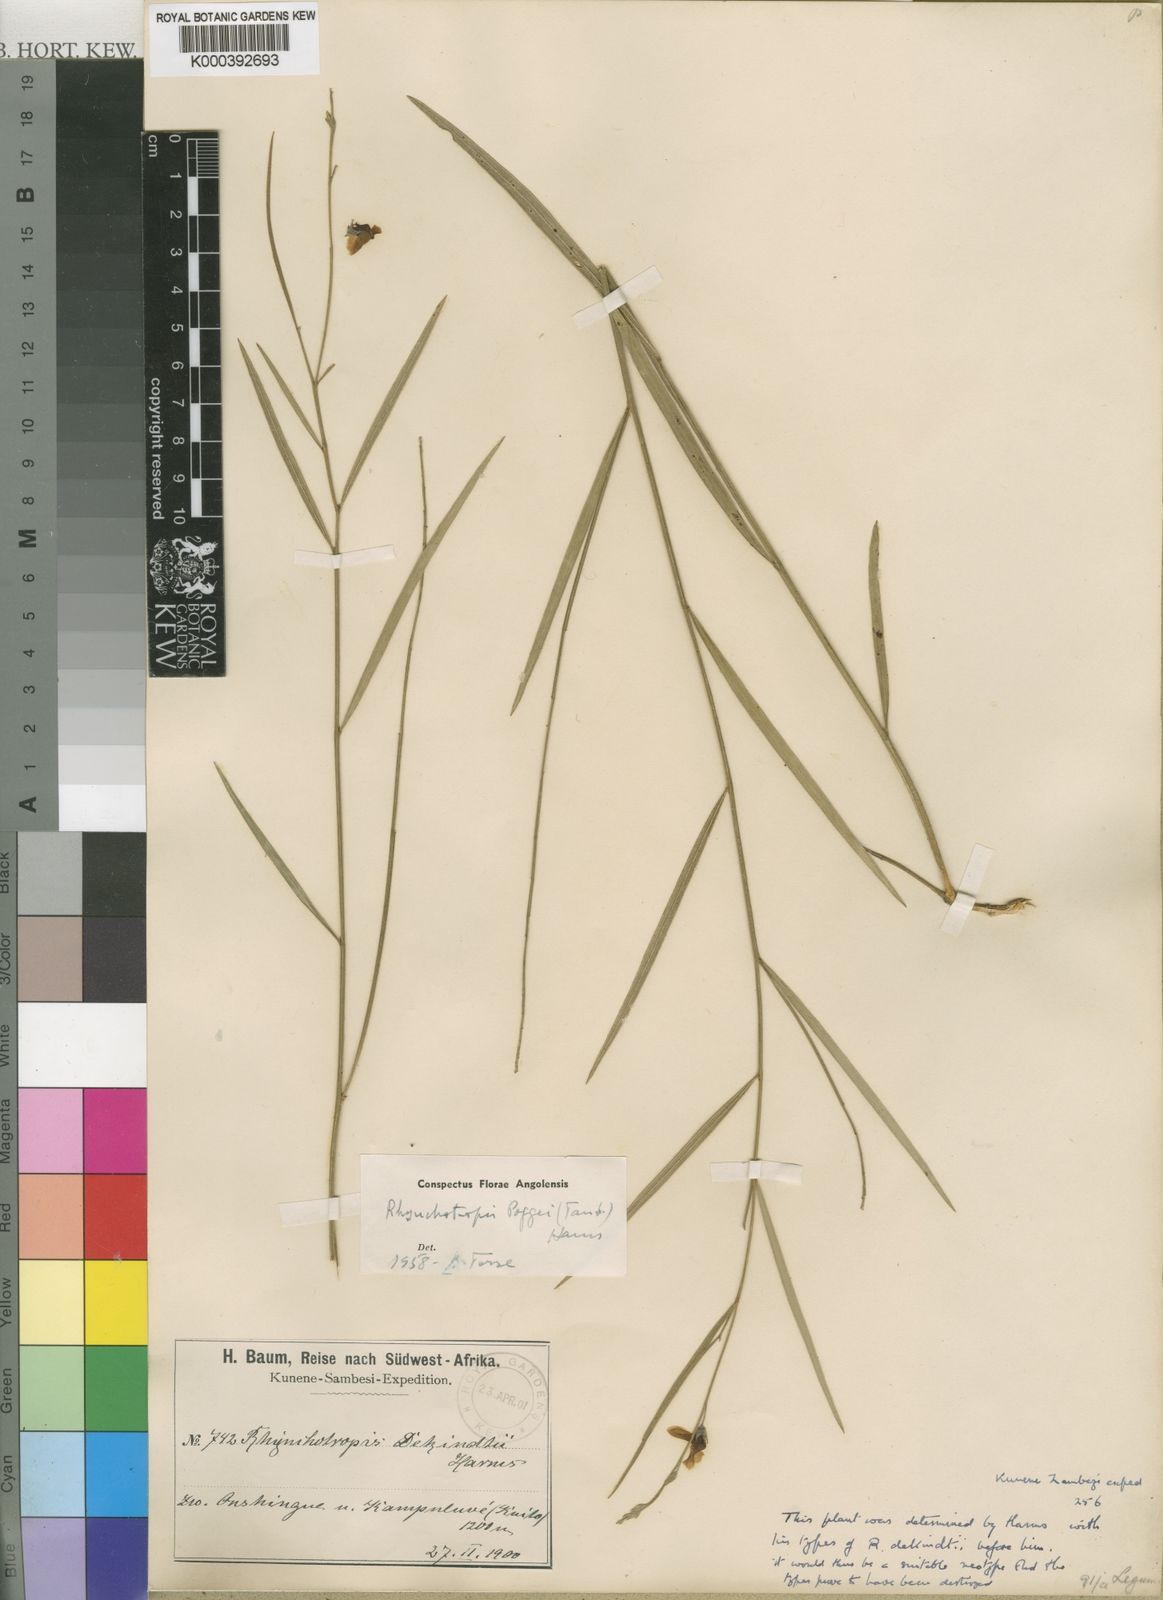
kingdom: Plantae
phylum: Tracheophyta
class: Magnoliopsida
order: Fabales
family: Fabaceae
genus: Rhynchotropis
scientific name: Rhynchotropis poggei
